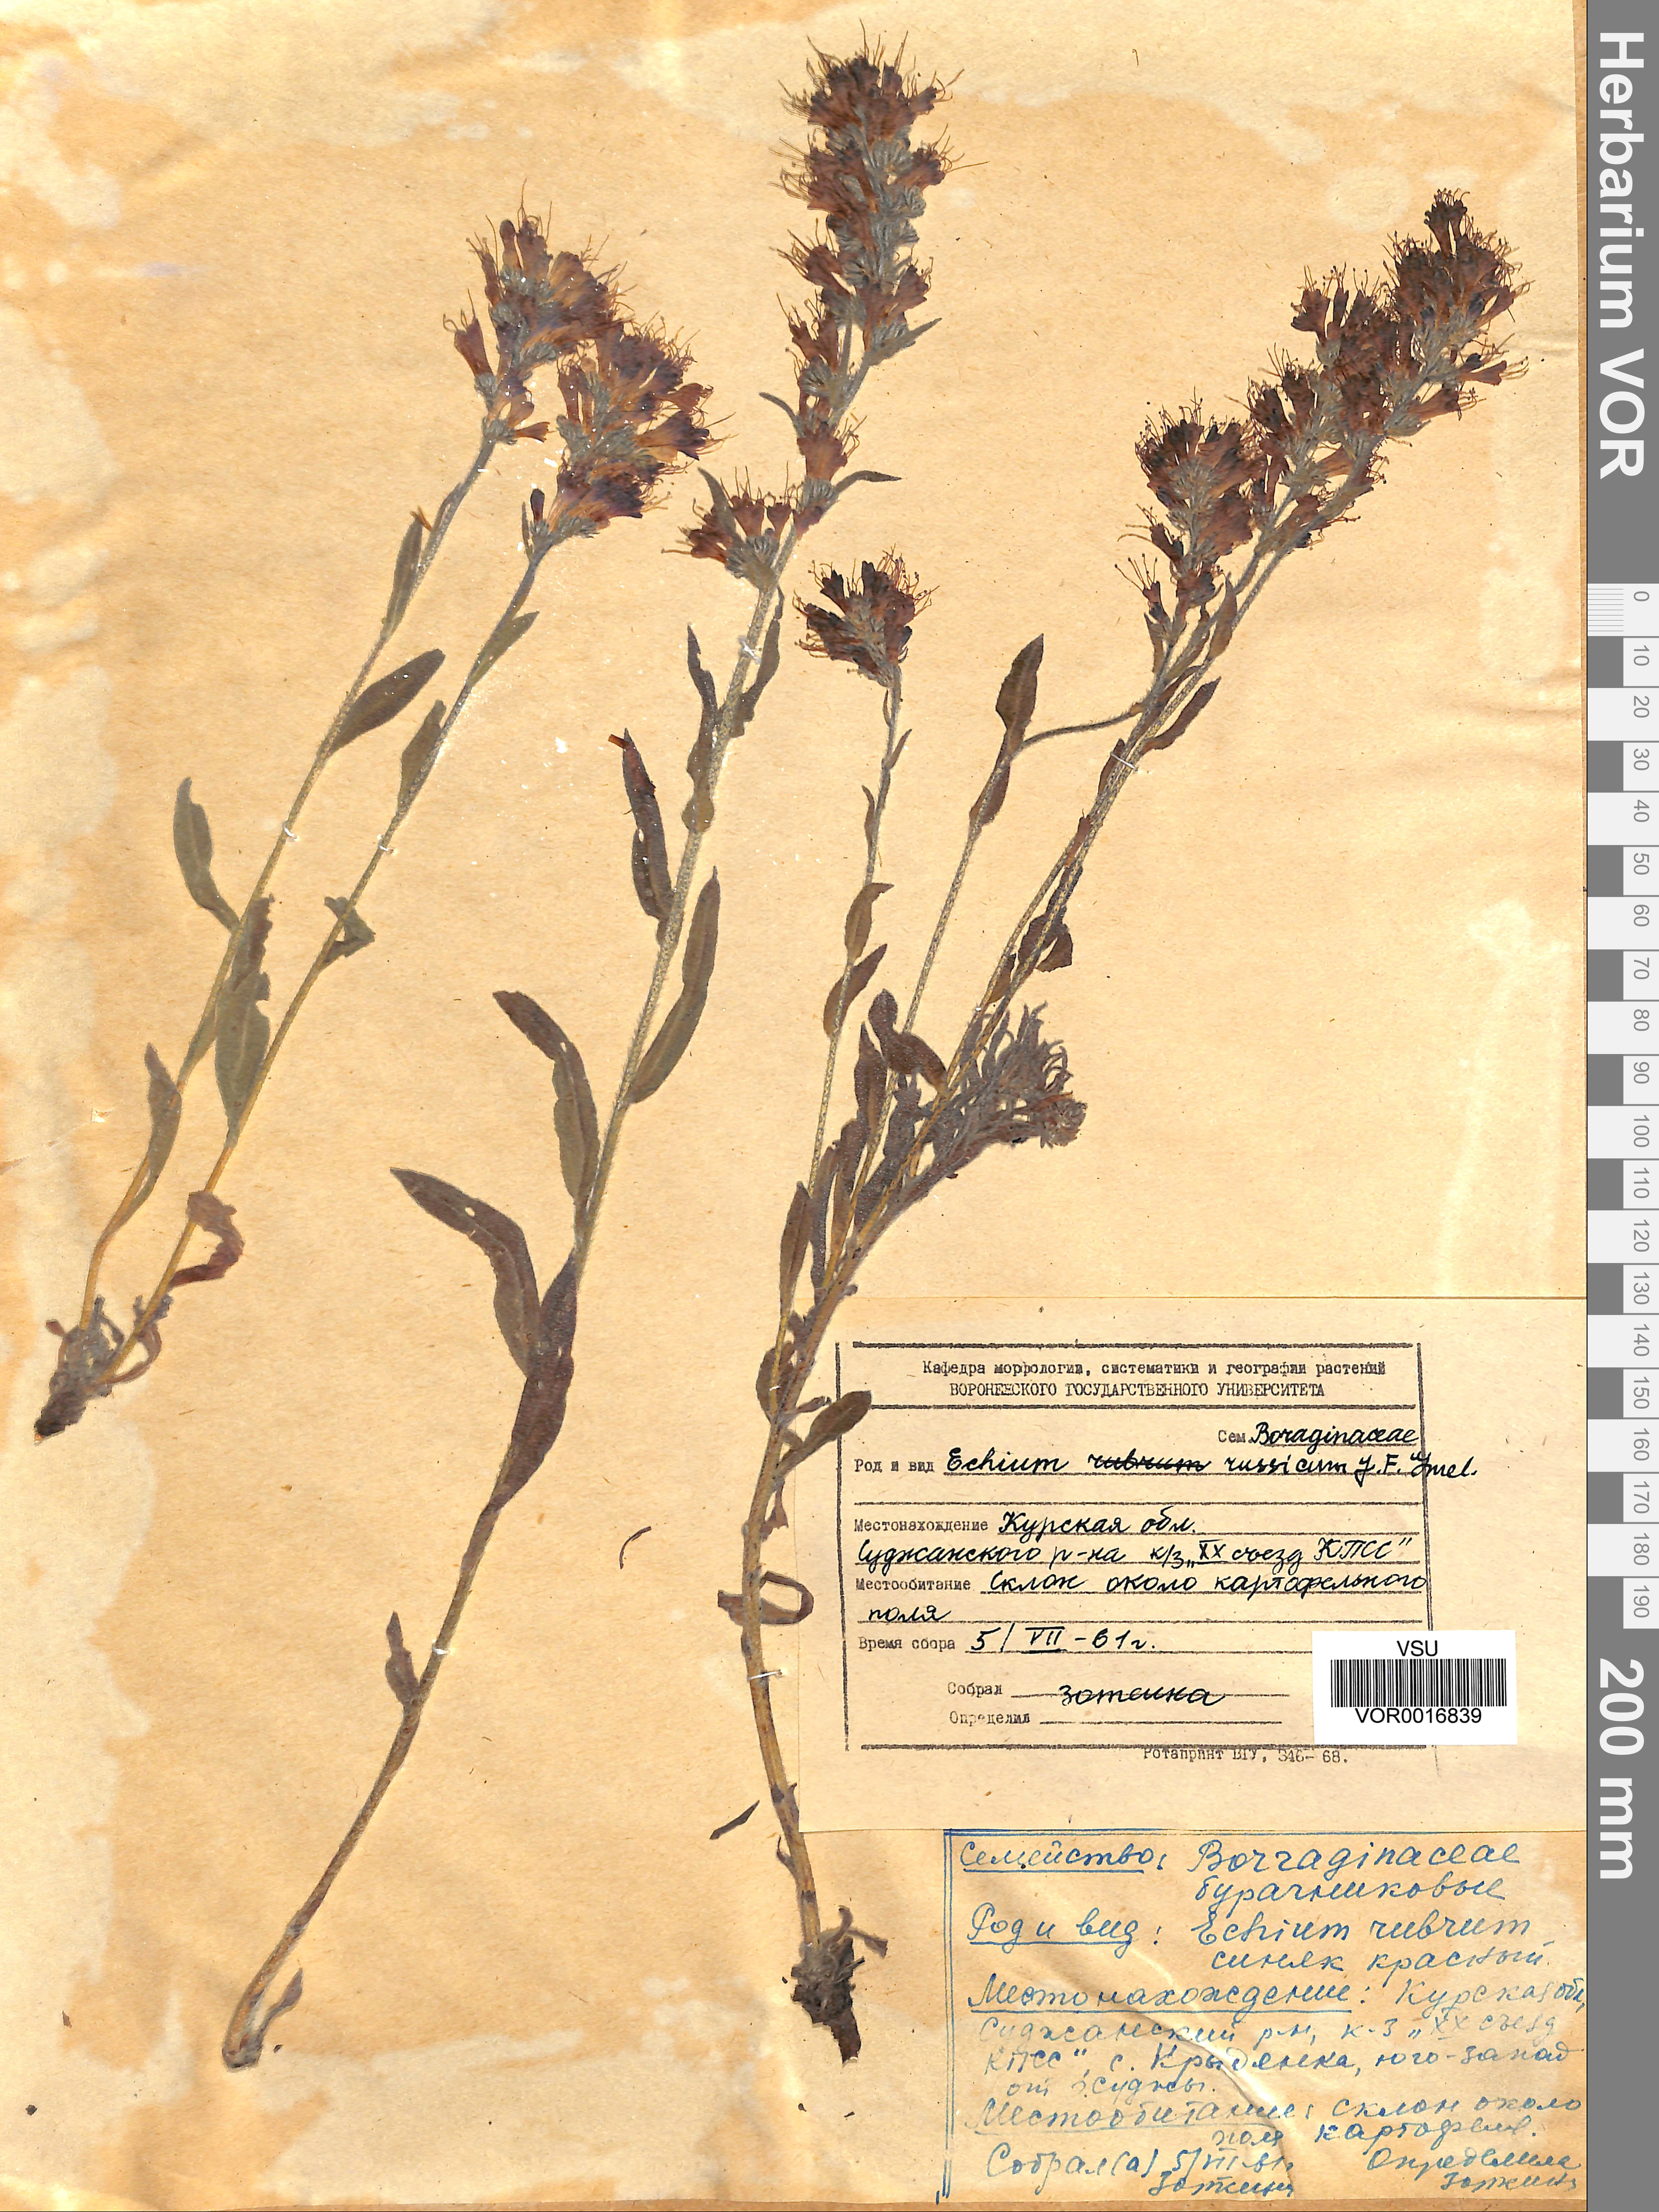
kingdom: Plantae
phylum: Tracheophyta
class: Magnoliopsida
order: Boraginales
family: Boraginaceae
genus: Pontechium
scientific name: Pontechium maculatum
